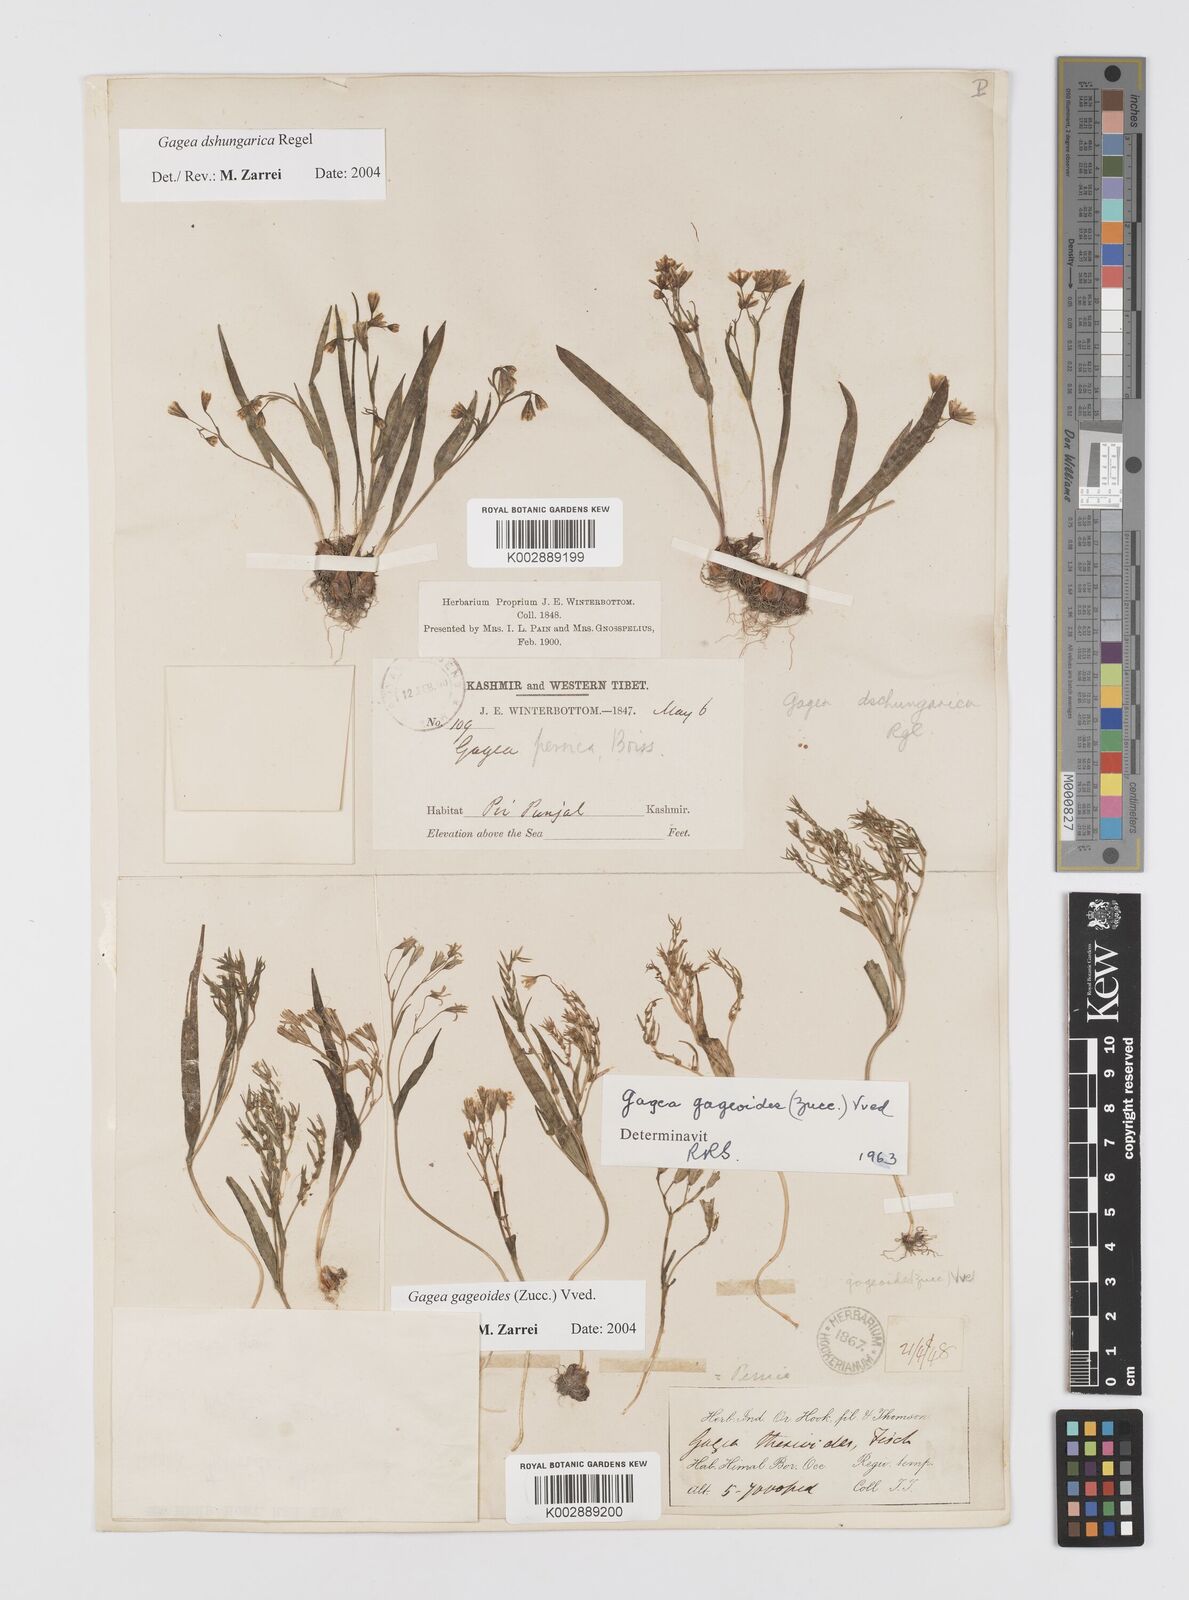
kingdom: Plantae
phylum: Tracheophyta
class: Liliopsida
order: Liliales
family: Liliaceae
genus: Gagea
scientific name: Gagea dschungarica
